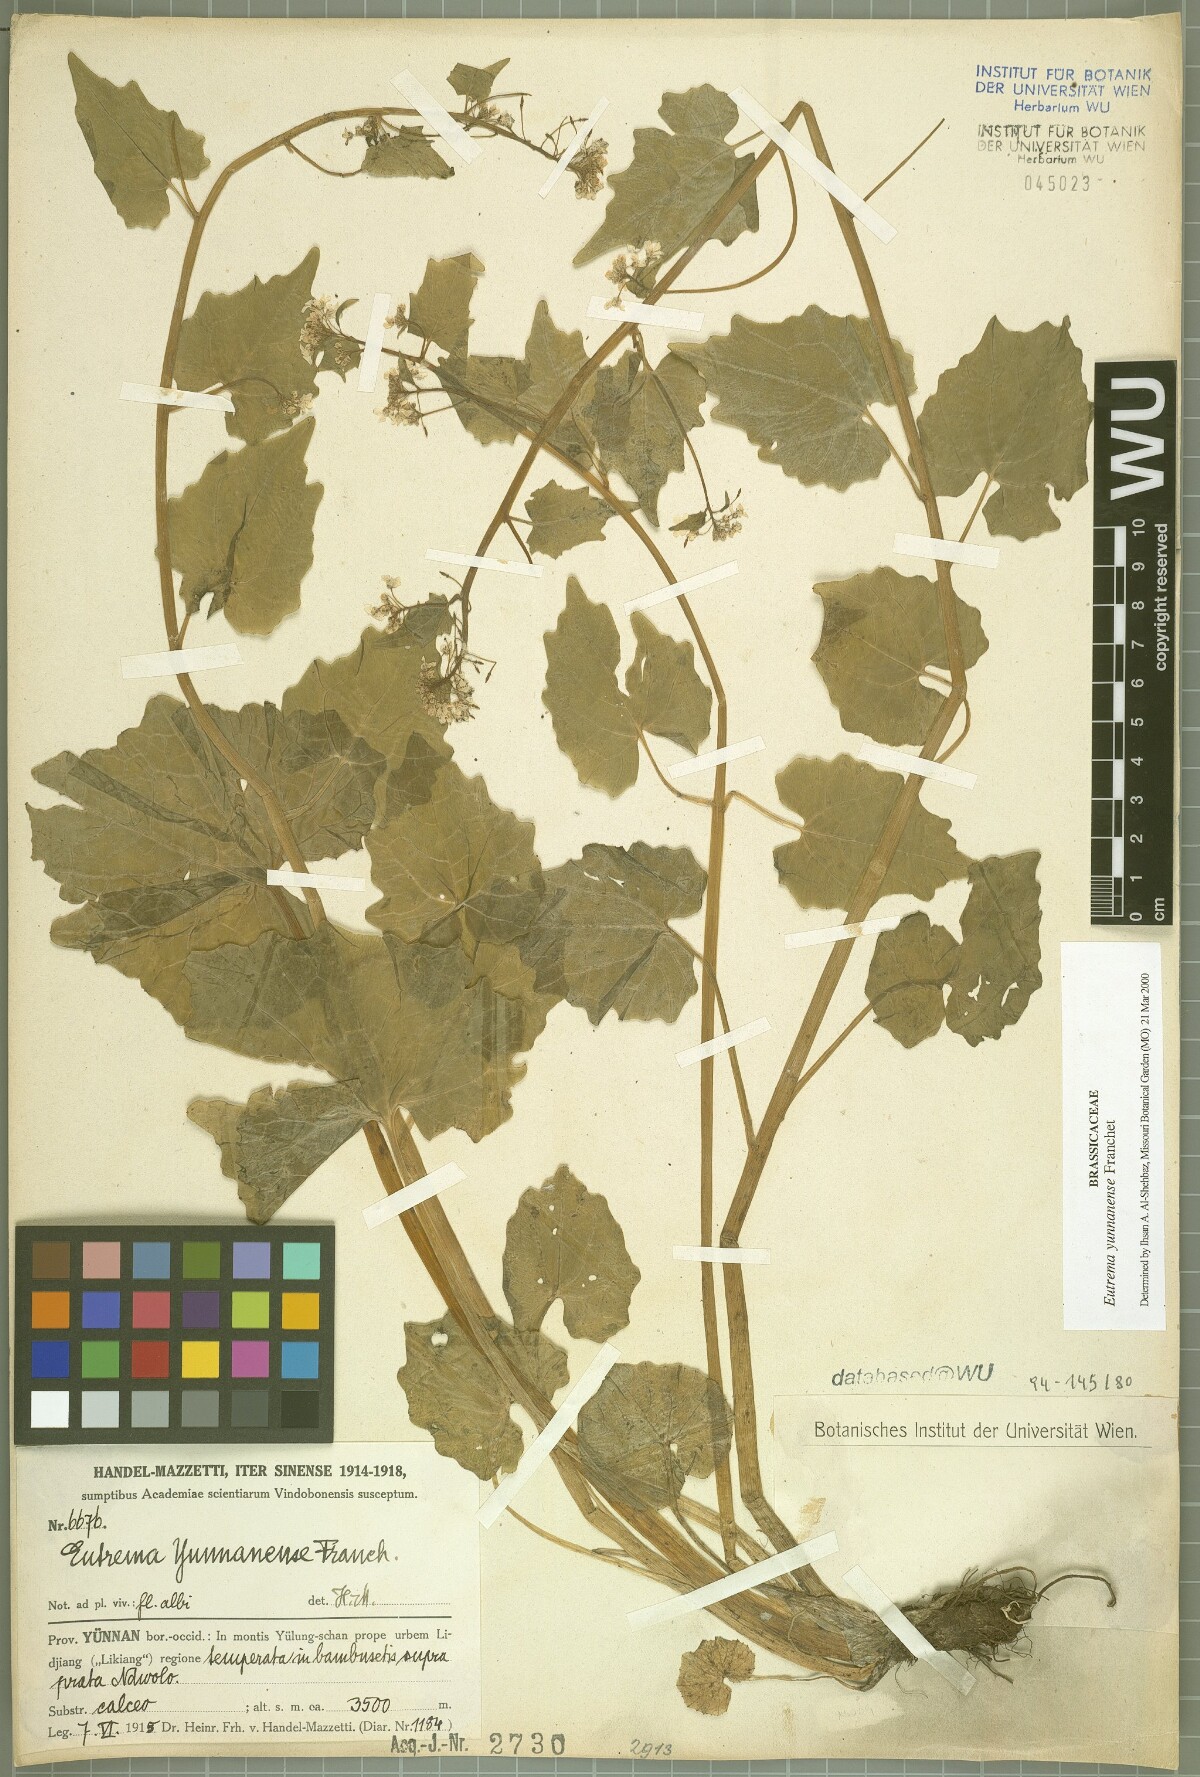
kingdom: Plantae
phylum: Tracheophyta
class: Magnoliopsida
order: Brassicales
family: Brassicaceae
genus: Eutrema
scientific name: Eutrema yunnanense
